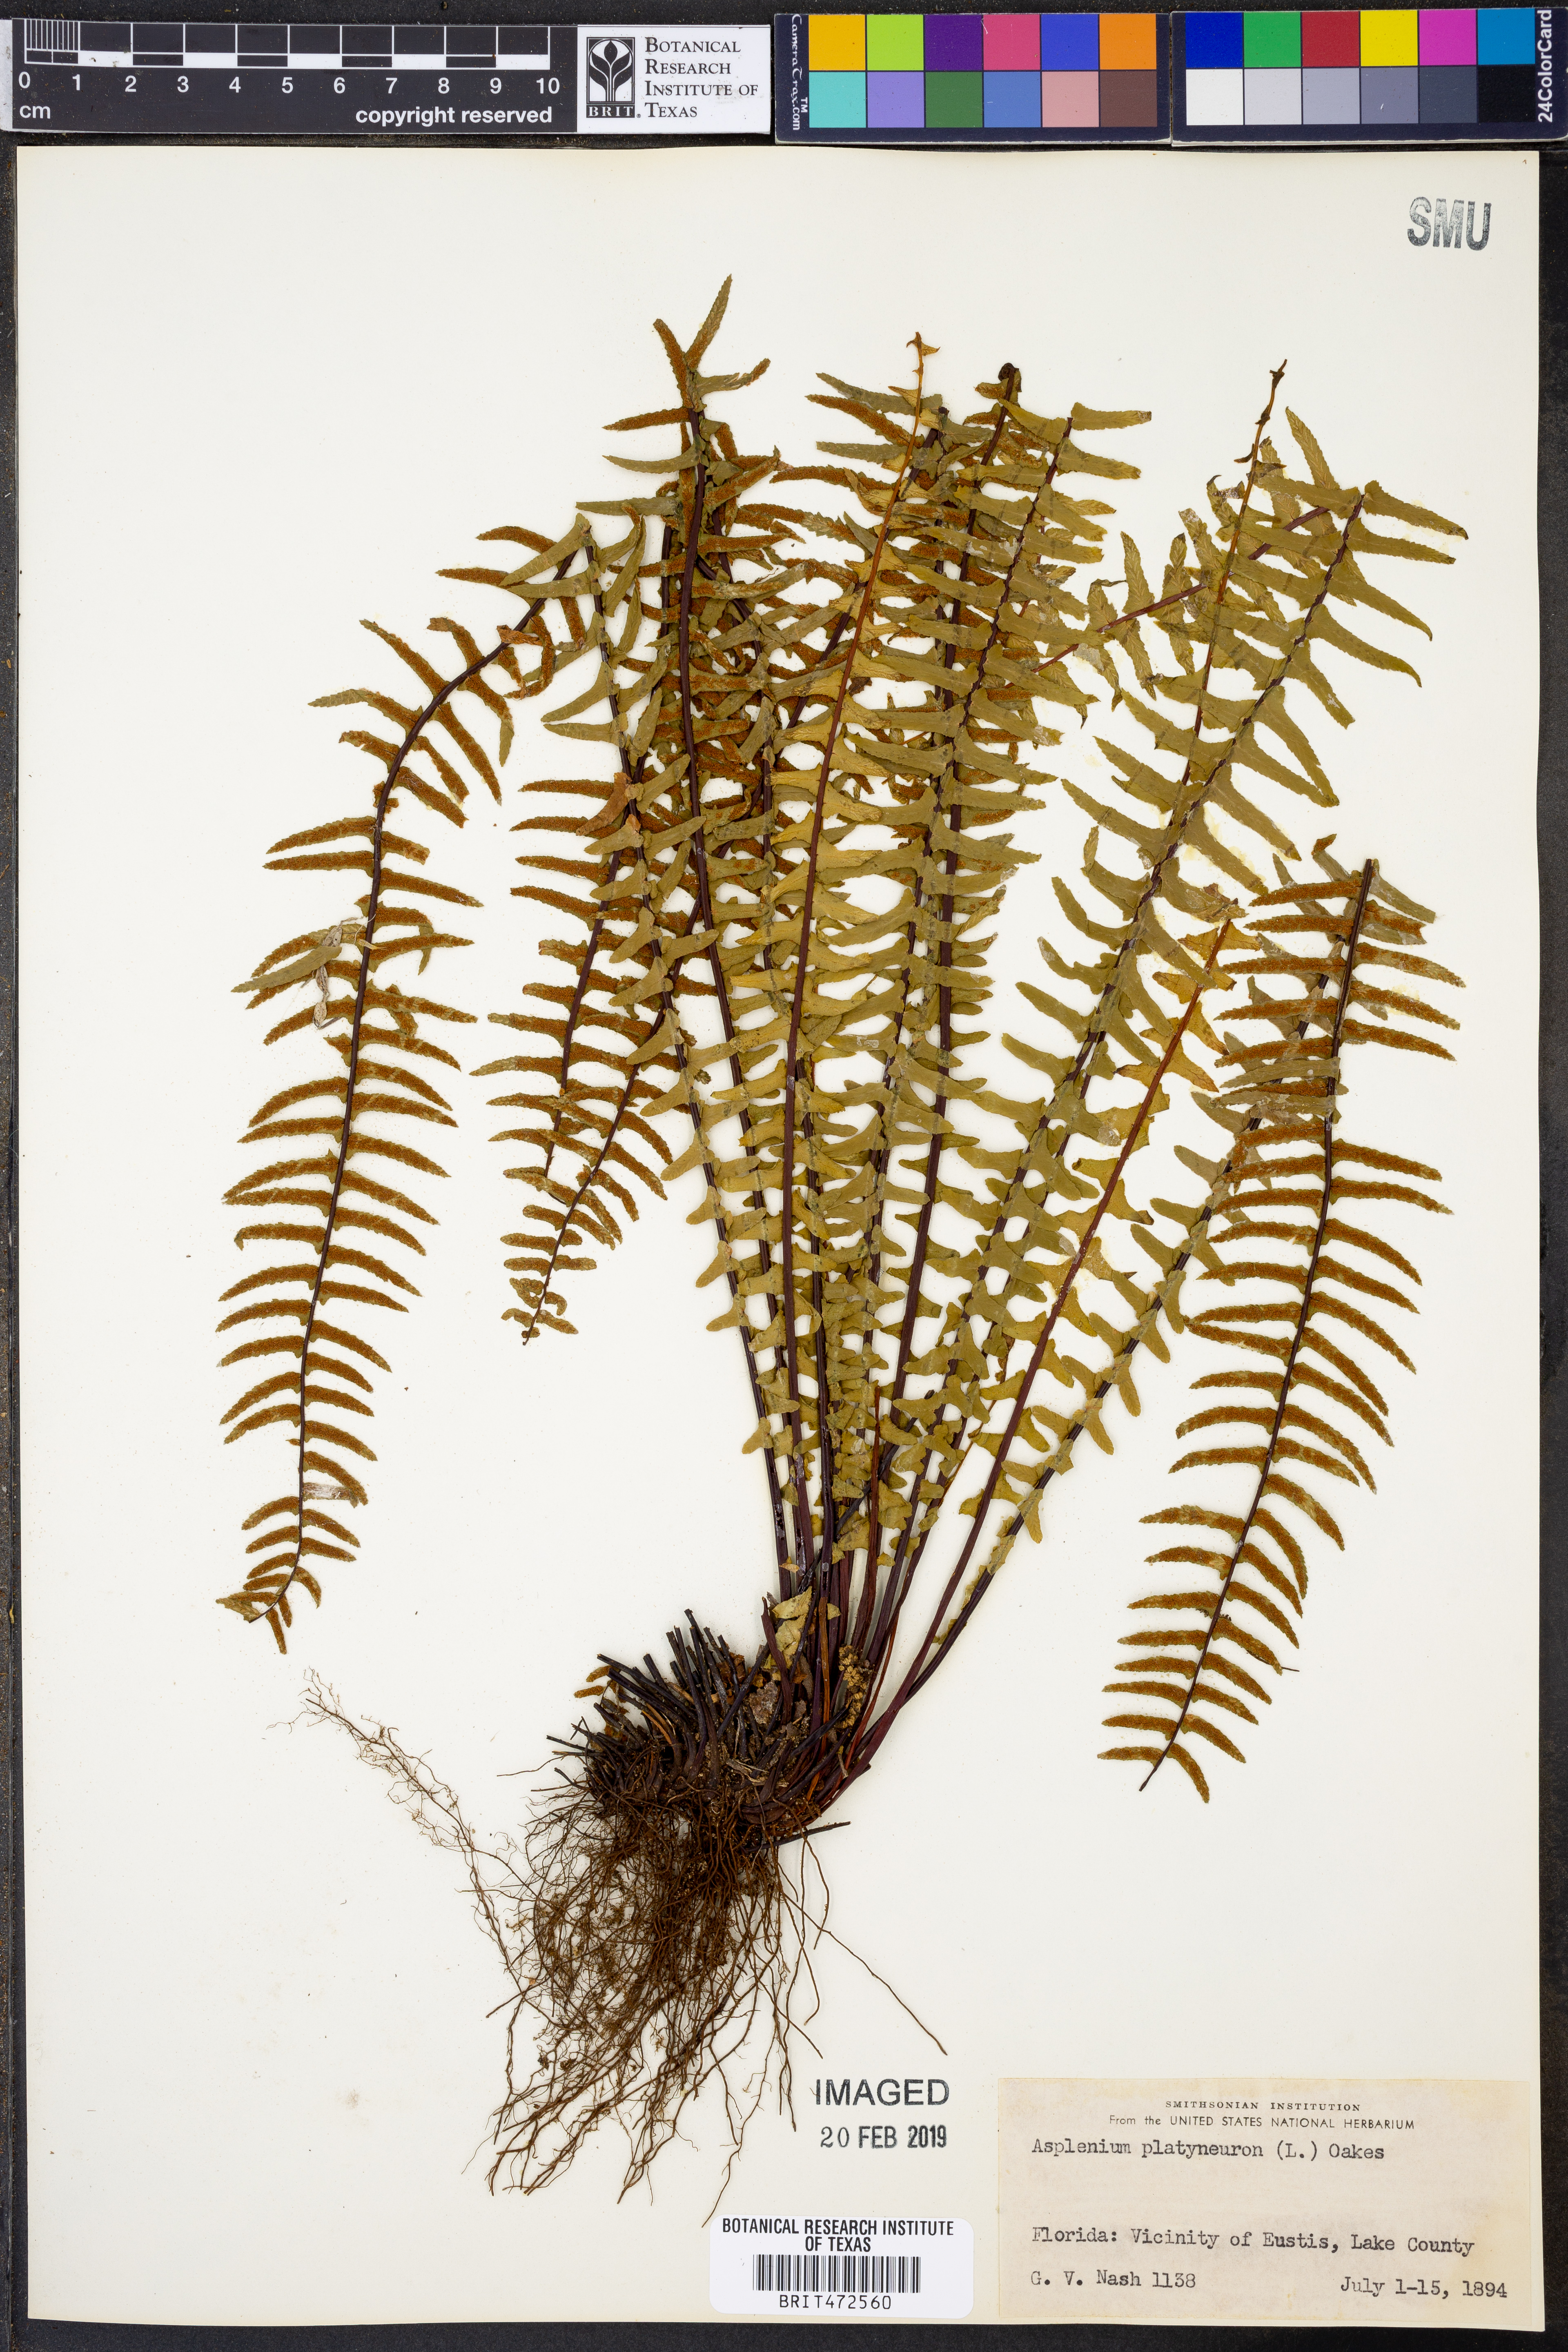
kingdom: Plantae
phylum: Tracheophyta
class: Polypodiopsida
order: Polypodiales
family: Aspleniaceae
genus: Asplenium
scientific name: Asplenium platyneuron
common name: Ebony spleenwort
